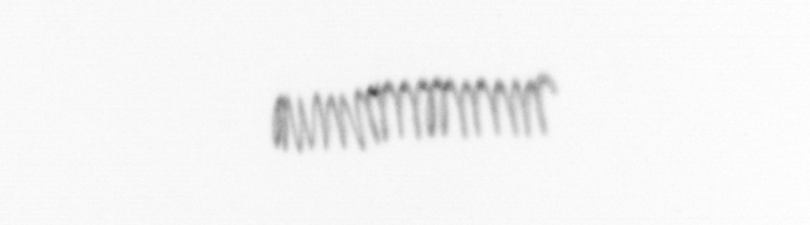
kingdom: Chromista
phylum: Ochrophyta
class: Bacillariophyceae
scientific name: Bacillariophyceae
